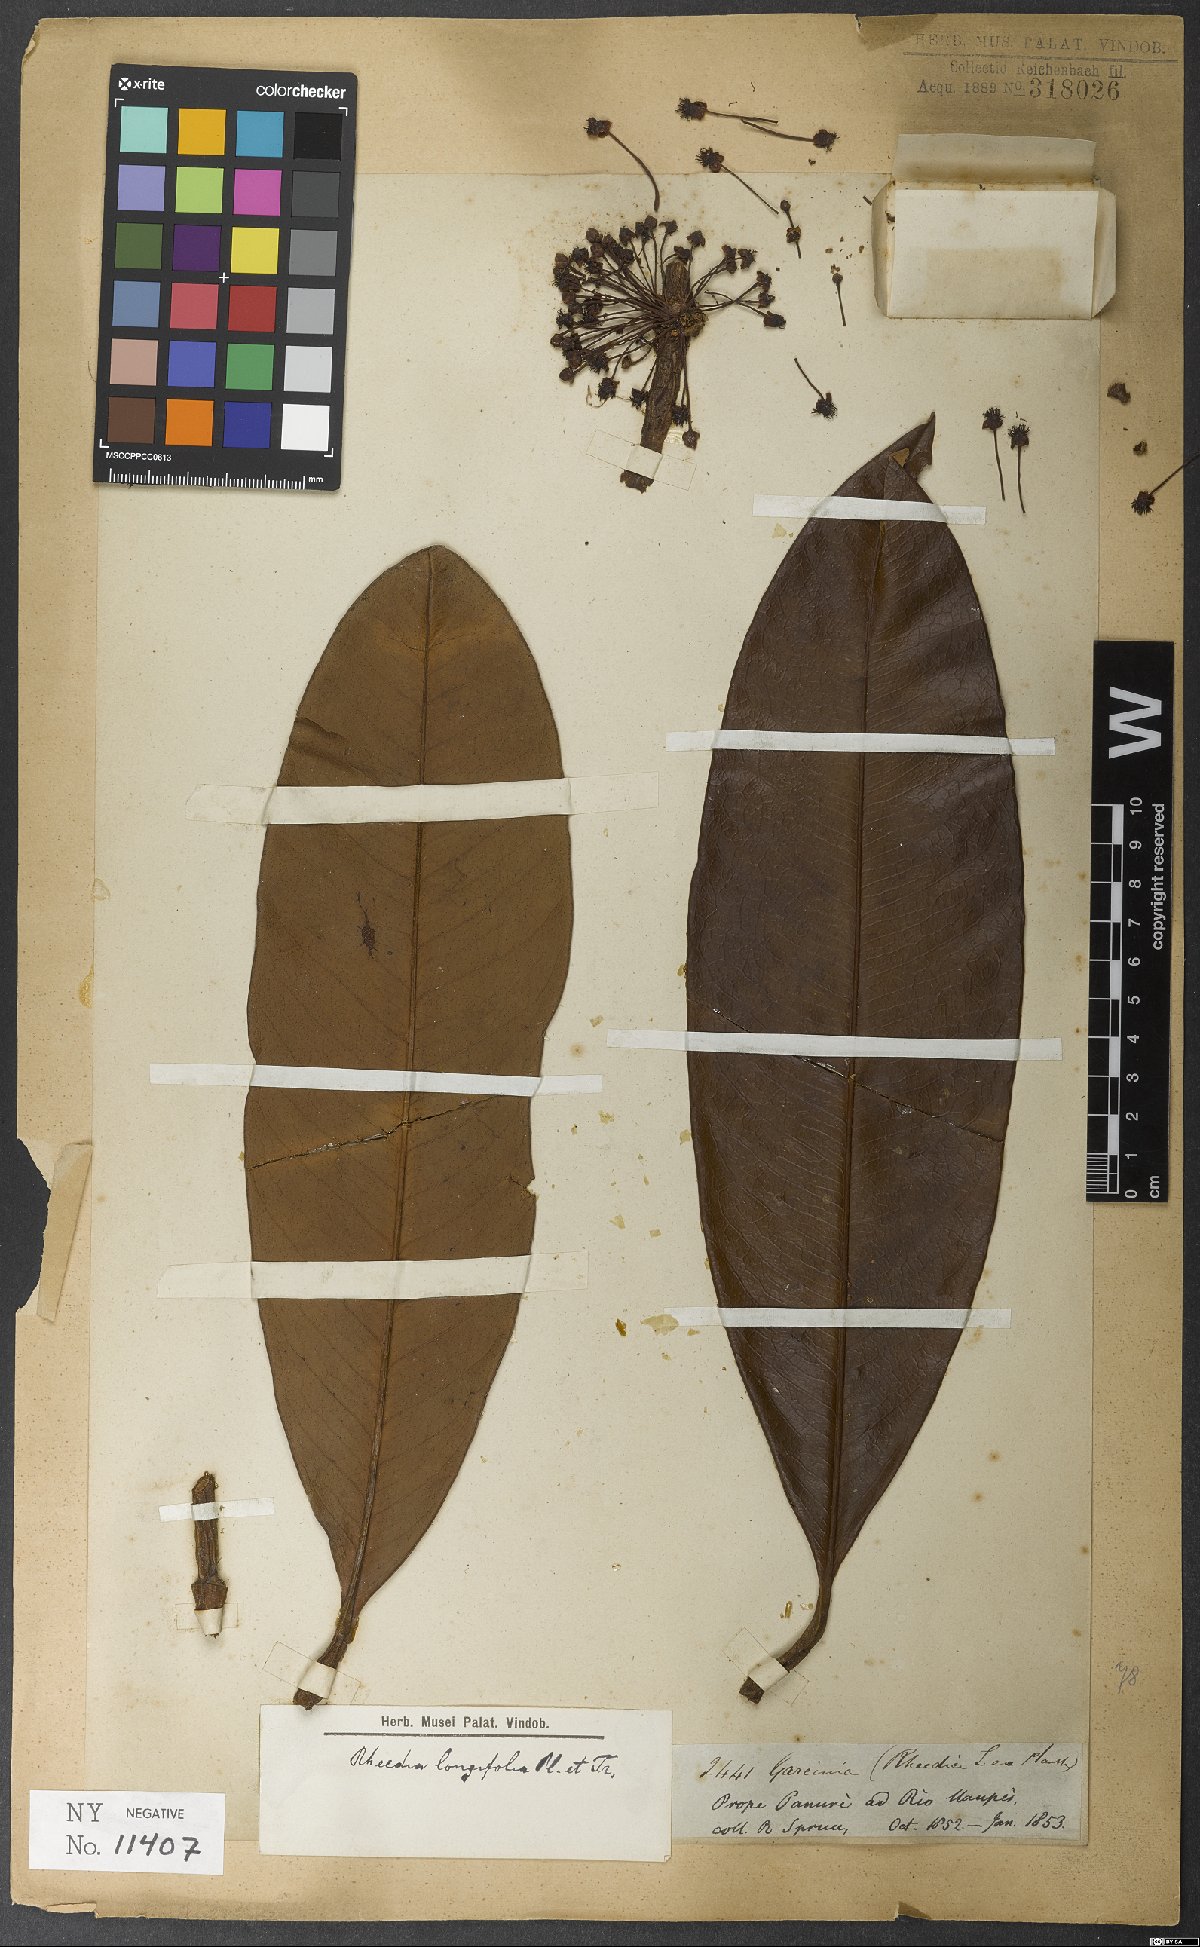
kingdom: Plantae
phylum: Tracheophyta
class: Magnoliopsida
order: Malpighiales
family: Clusiaceae
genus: Garcinia
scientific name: Garcinia leptophylla
